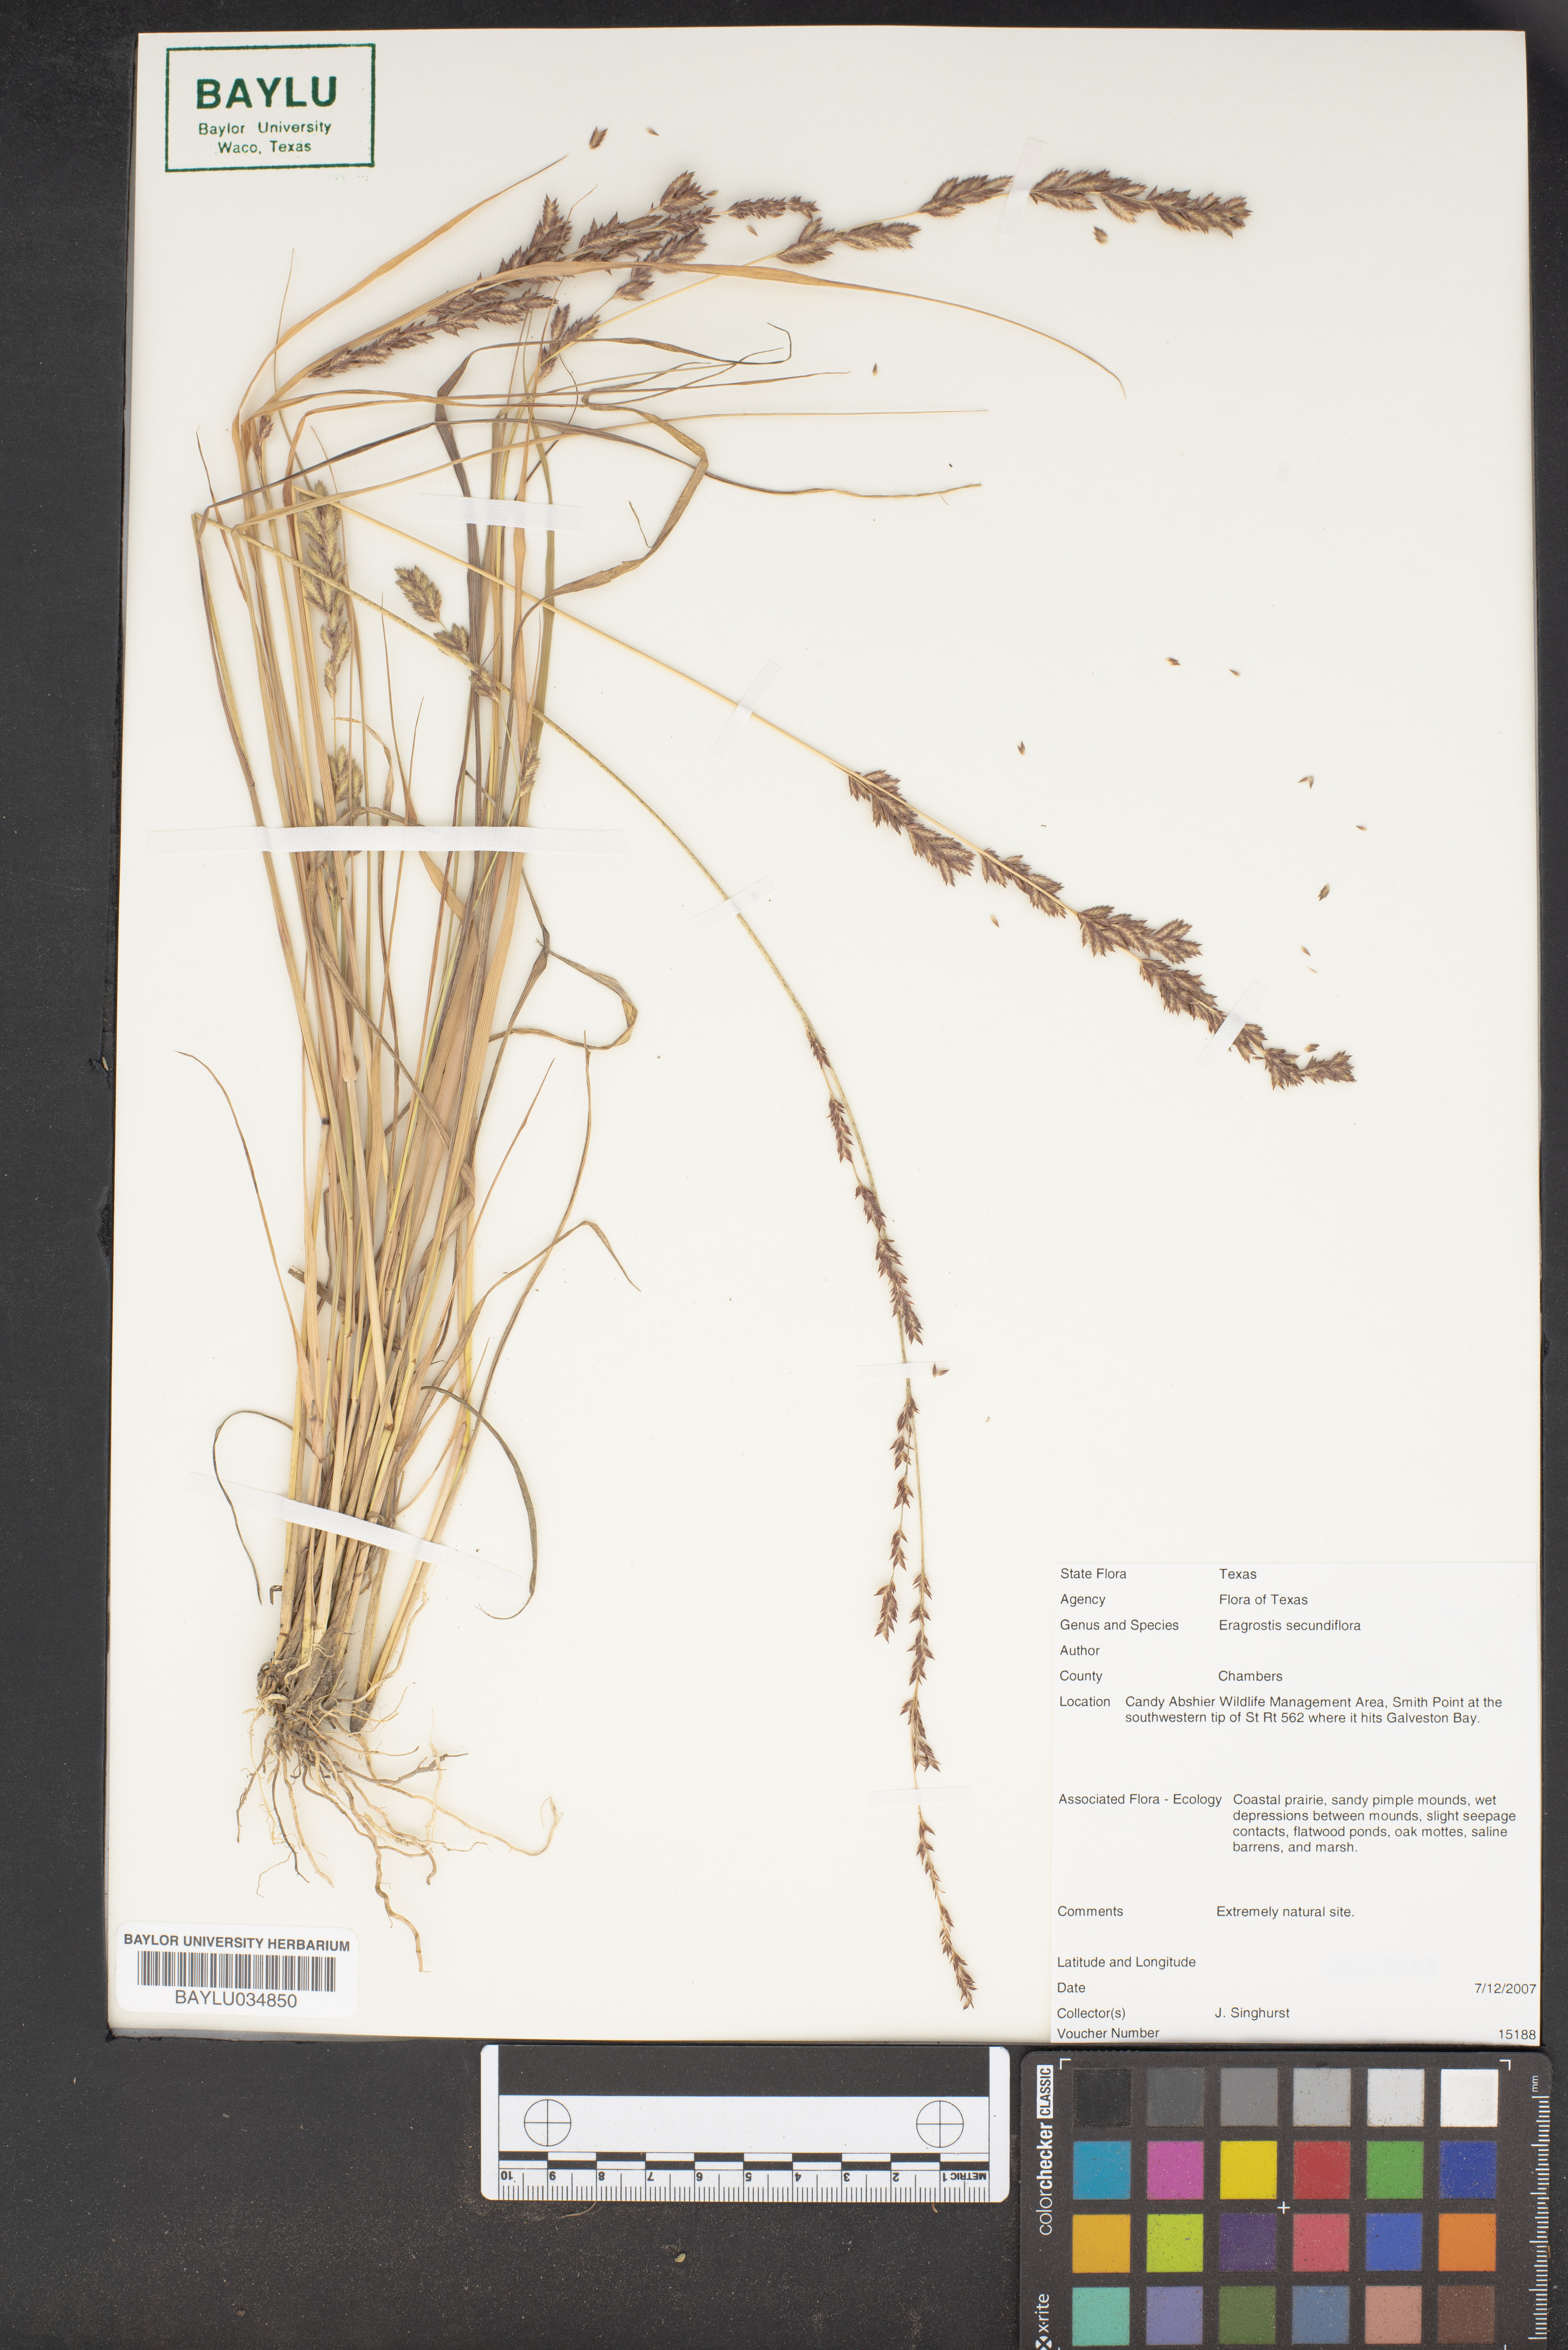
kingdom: Plantae
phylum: Tracheophyta
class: Liliopsida
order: Poales
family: Poaceae
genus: Eragrostis
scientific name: Eragrostis secundiflora
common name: Red love grass
